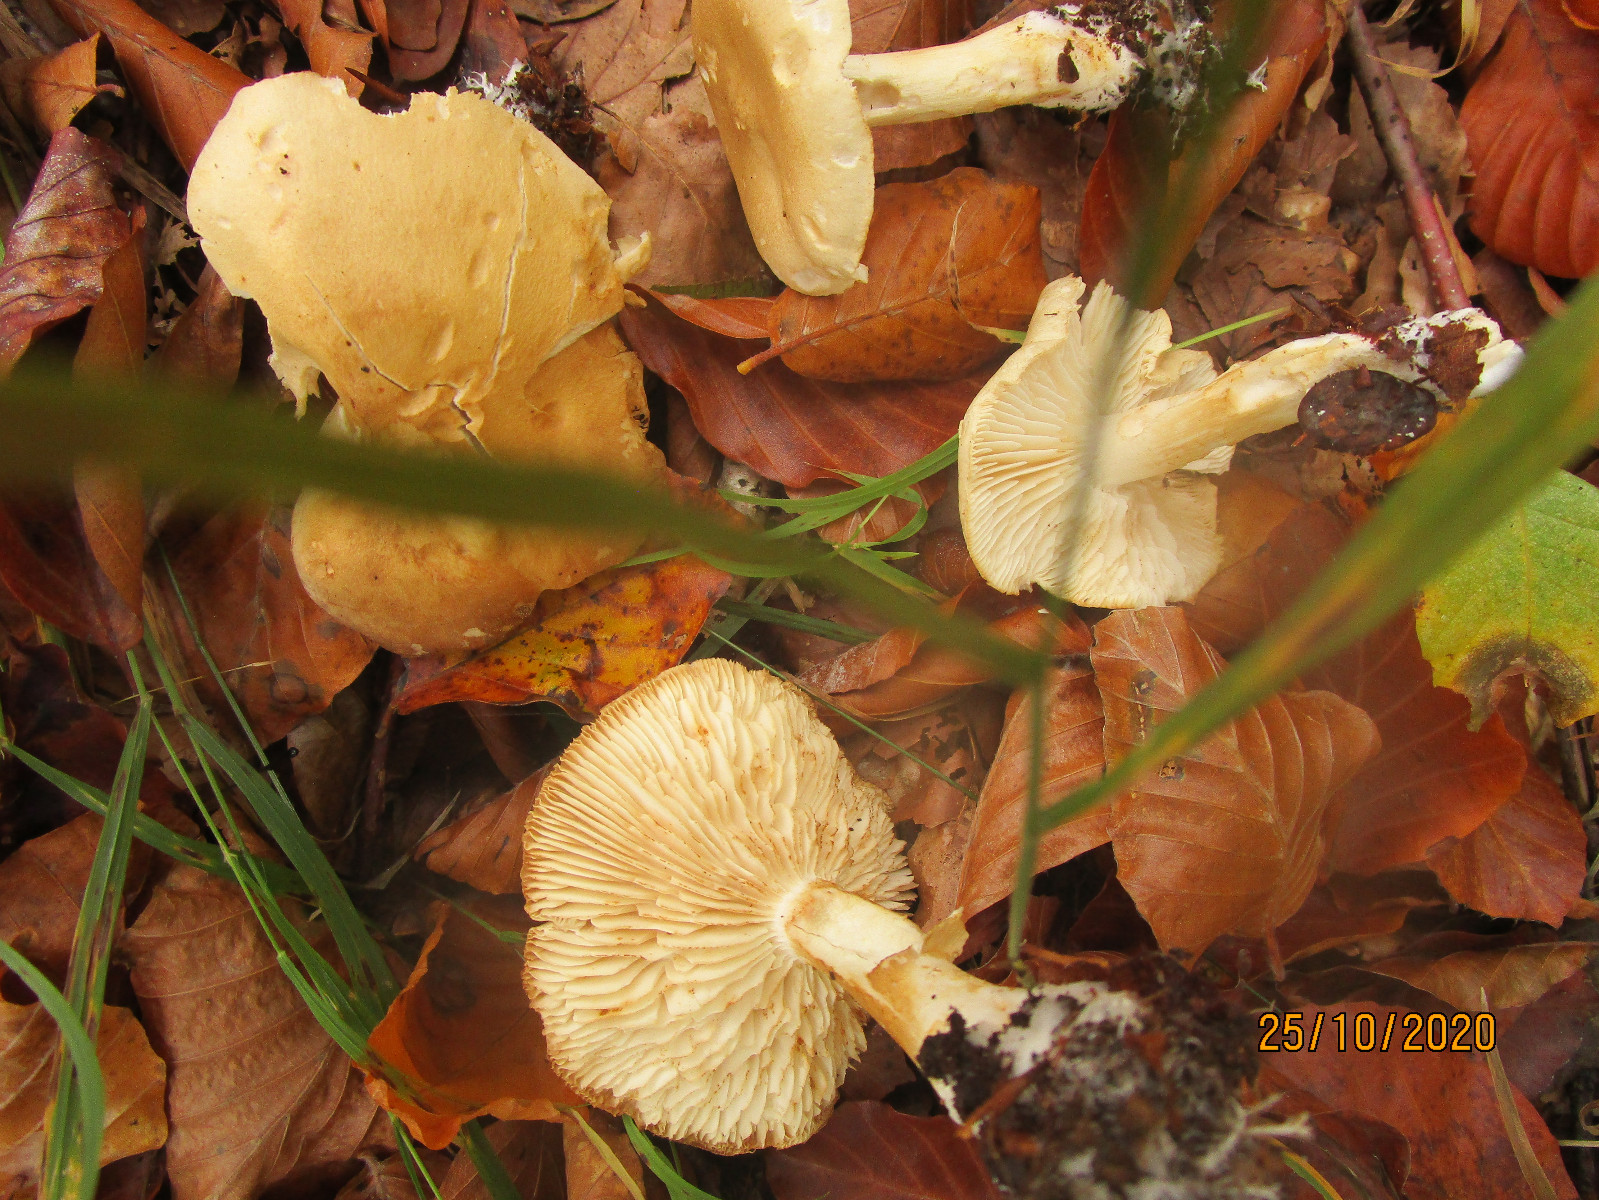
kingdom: Fungi
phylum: Basidiomycota
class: Agaricomycetes
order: Agaricales
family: Tricholomataceae
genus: Tricholoma
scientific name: Tricholoma lascivum
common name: stinkende ridderhat
